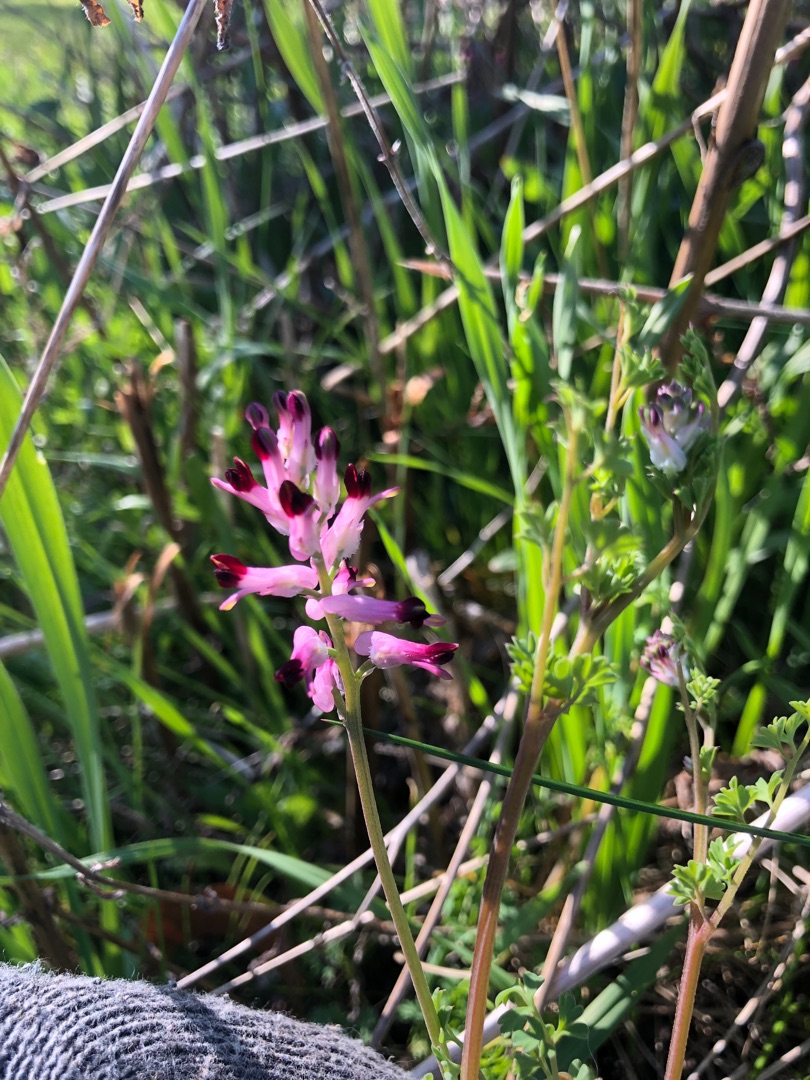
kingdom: Plantae
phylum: Tracheophyta
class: Magnoliopsida
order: Ranunculales
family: Papaveraceae
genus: Fumaria
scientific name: Fumaria officinalis
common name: Læge-jordrøg
